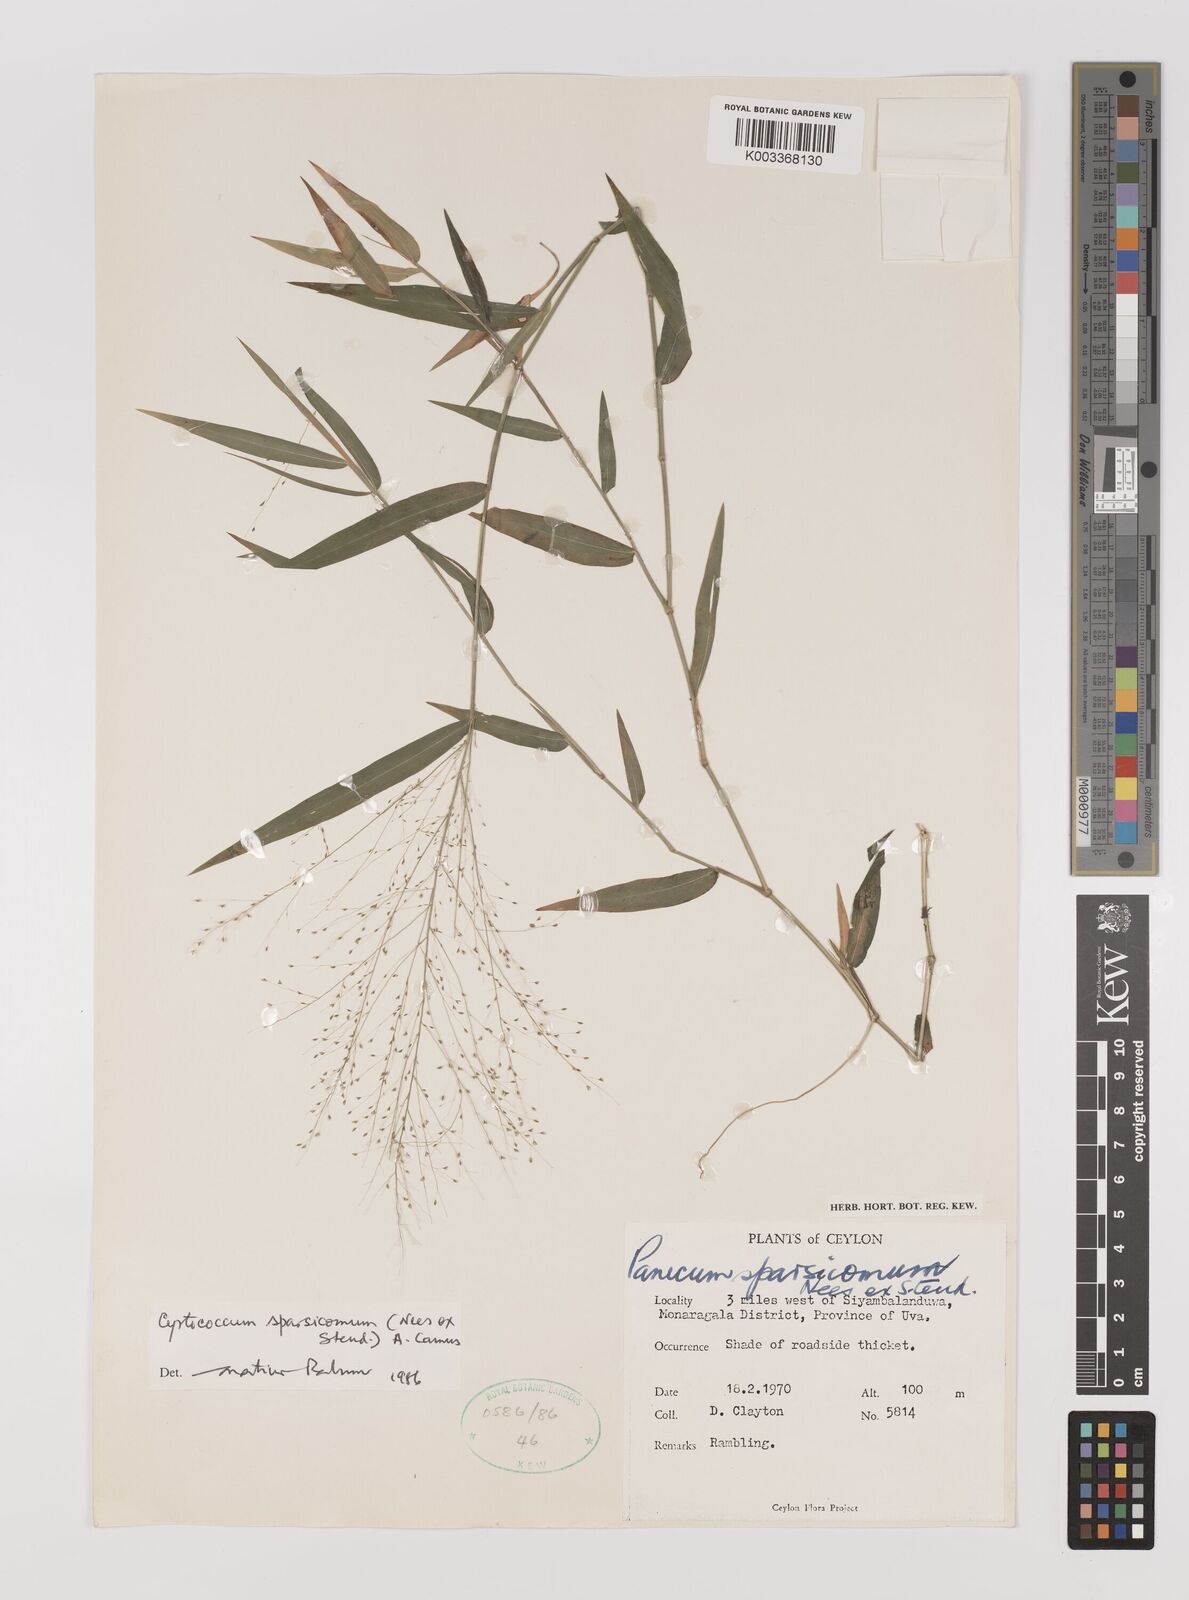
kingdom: Plantae
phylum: Tracheophyta
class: Liliopsida
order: Poales
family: Poaceae
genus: Panicum
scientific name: Panicum sparsicomum
